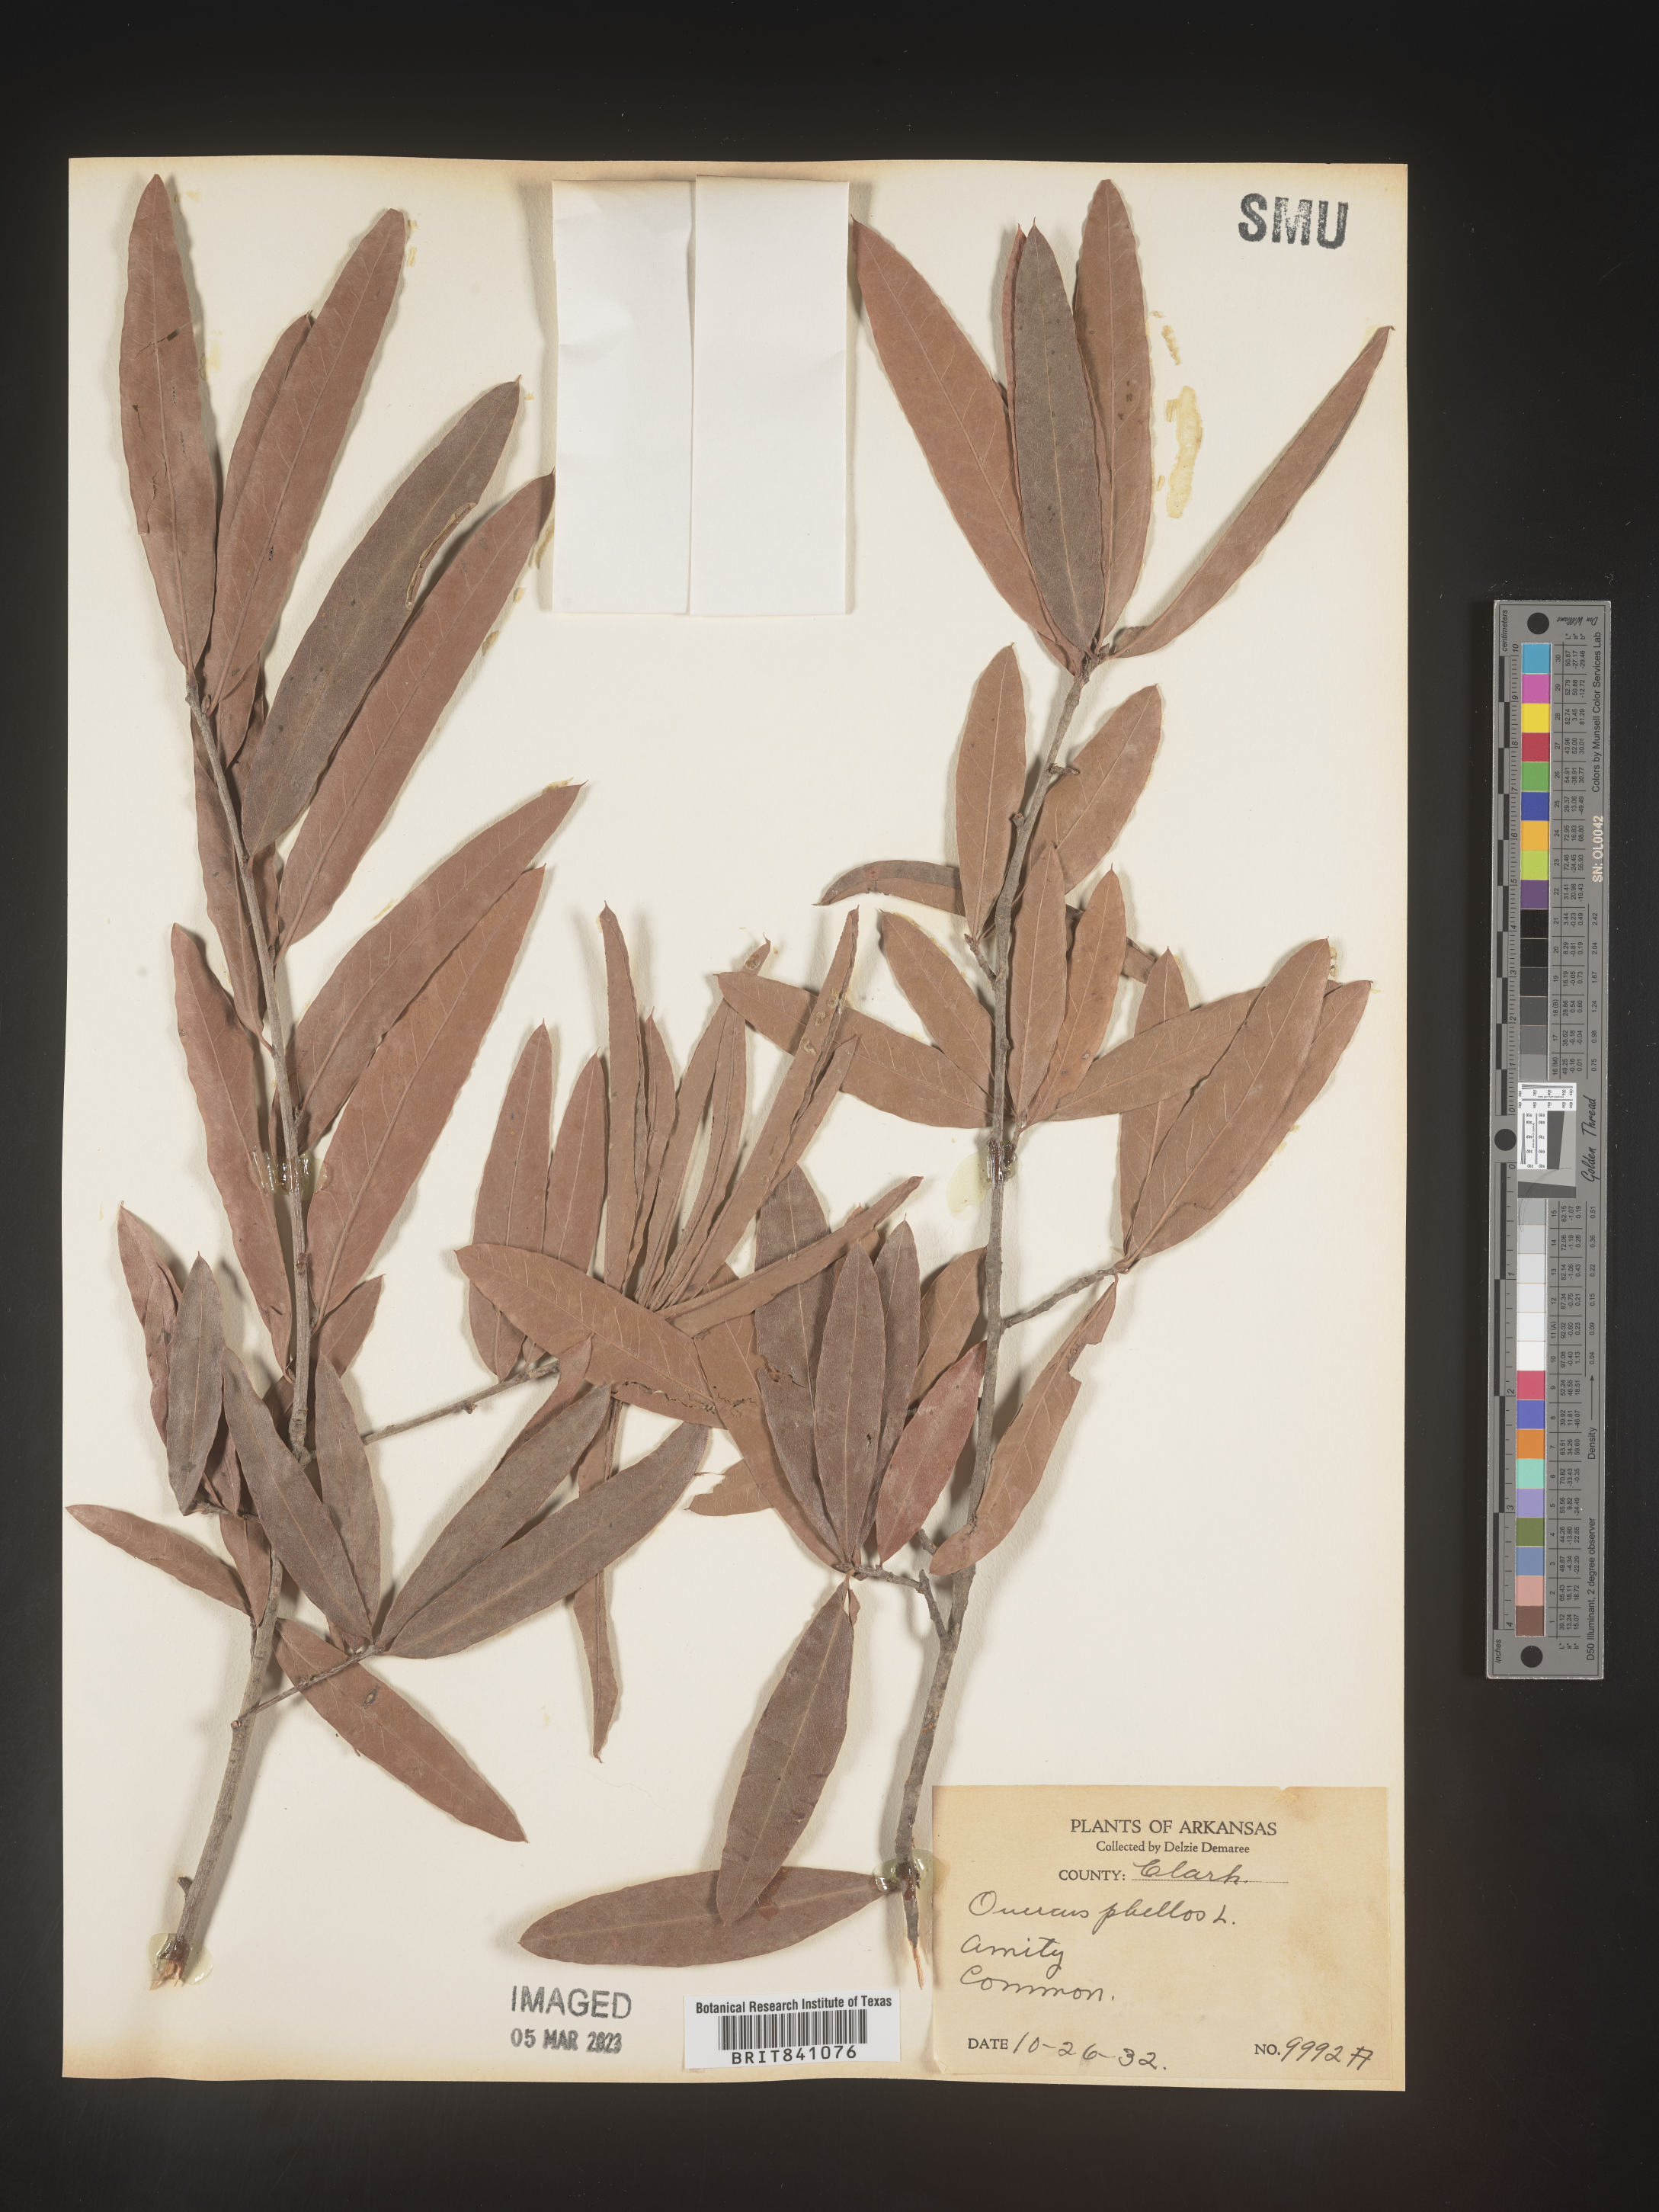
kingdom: Plantae
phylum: Tracheophyta
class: Magnoliopsida
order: Fagales
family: Fagaceae
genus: Quercus
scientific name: Quercus phellos
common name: Willow oak
